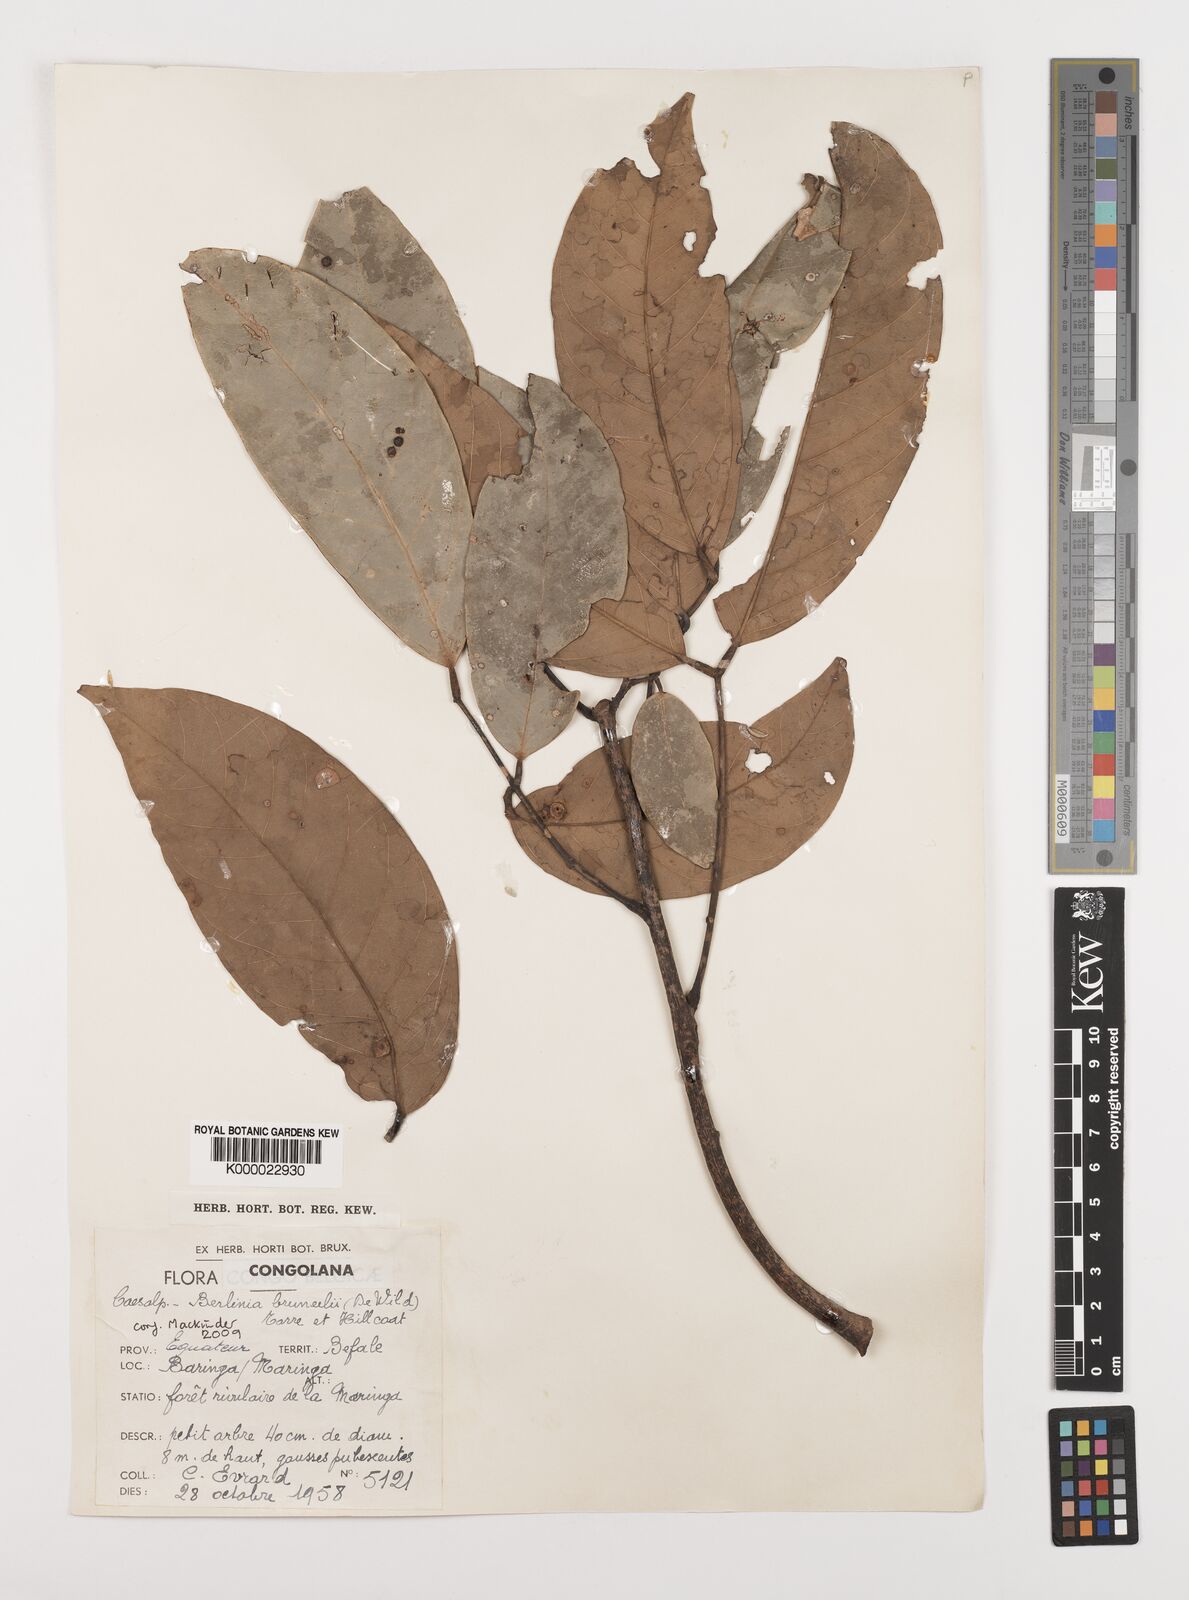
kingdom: Plantae
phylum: Tracheophyta
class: Magnoliopsida
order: Fabales
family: Fabaceae
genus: Berlinia
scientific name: Berlinia
